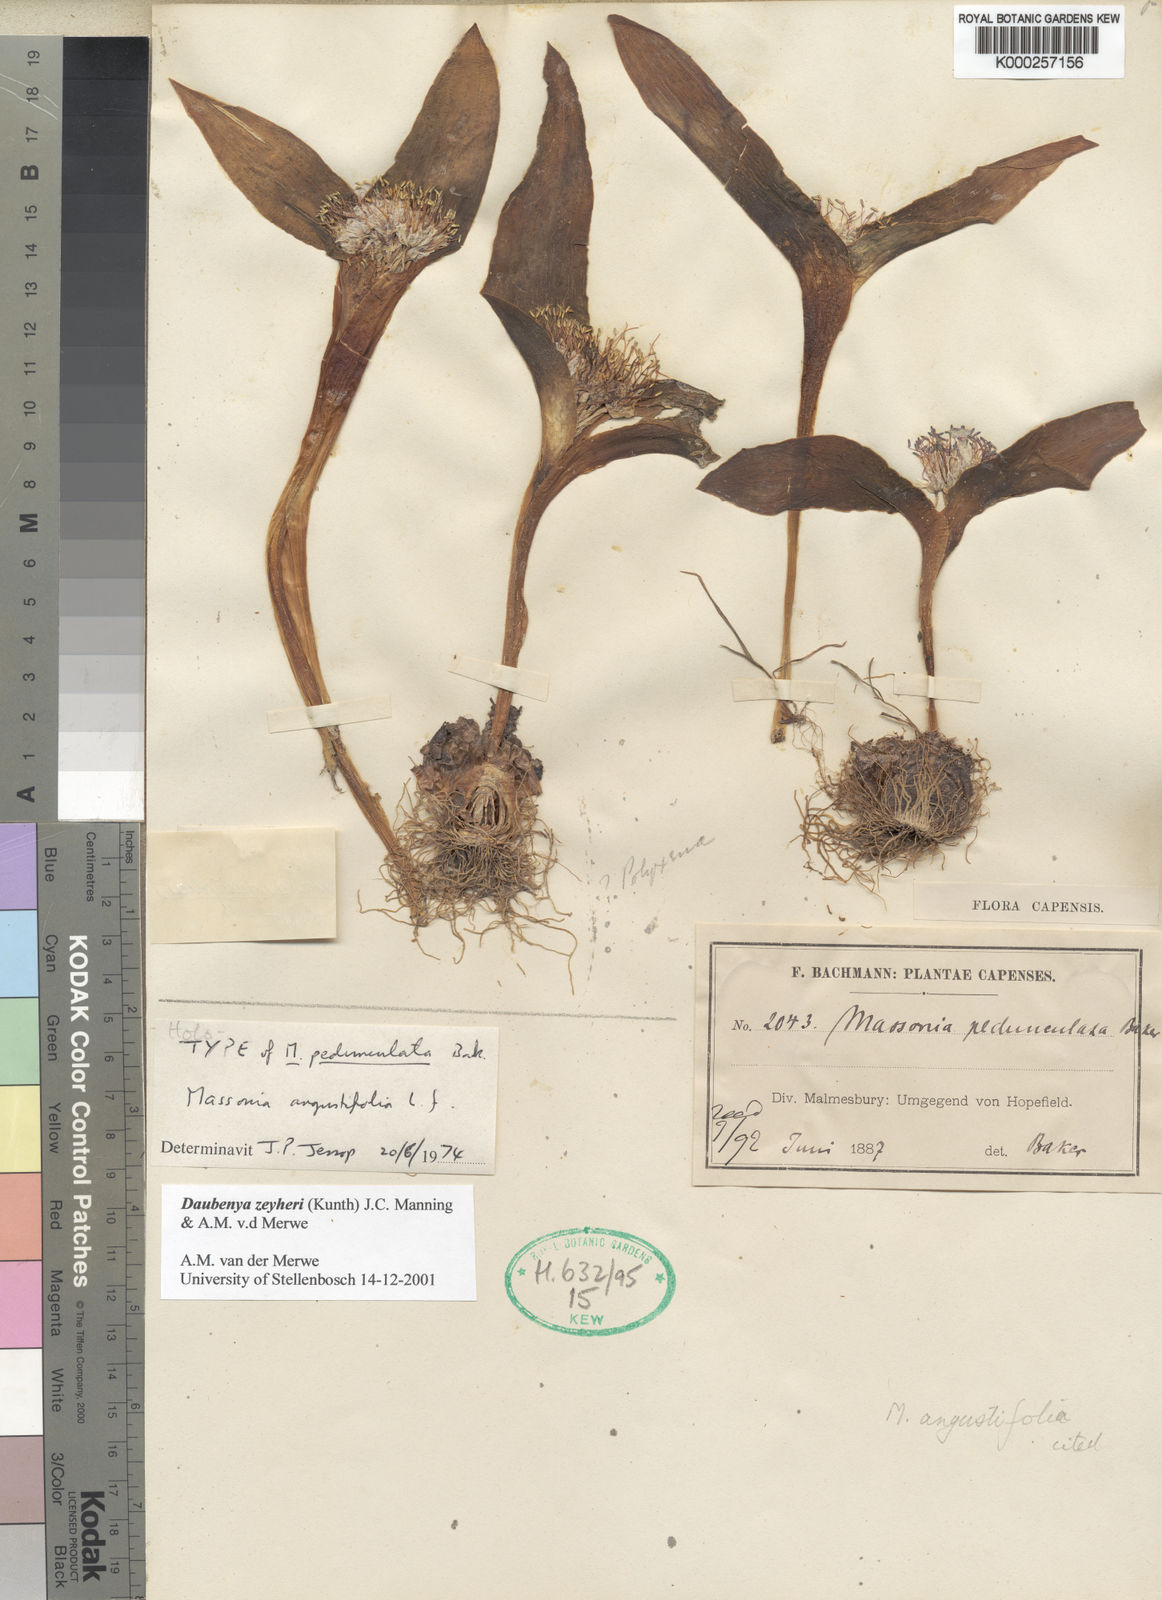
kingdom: Plantae
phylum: Tracheophyta
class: Liliopsida
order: Asparagales
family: Asparagaceae
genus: Daubenya
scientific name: Daubenya zeyheri
